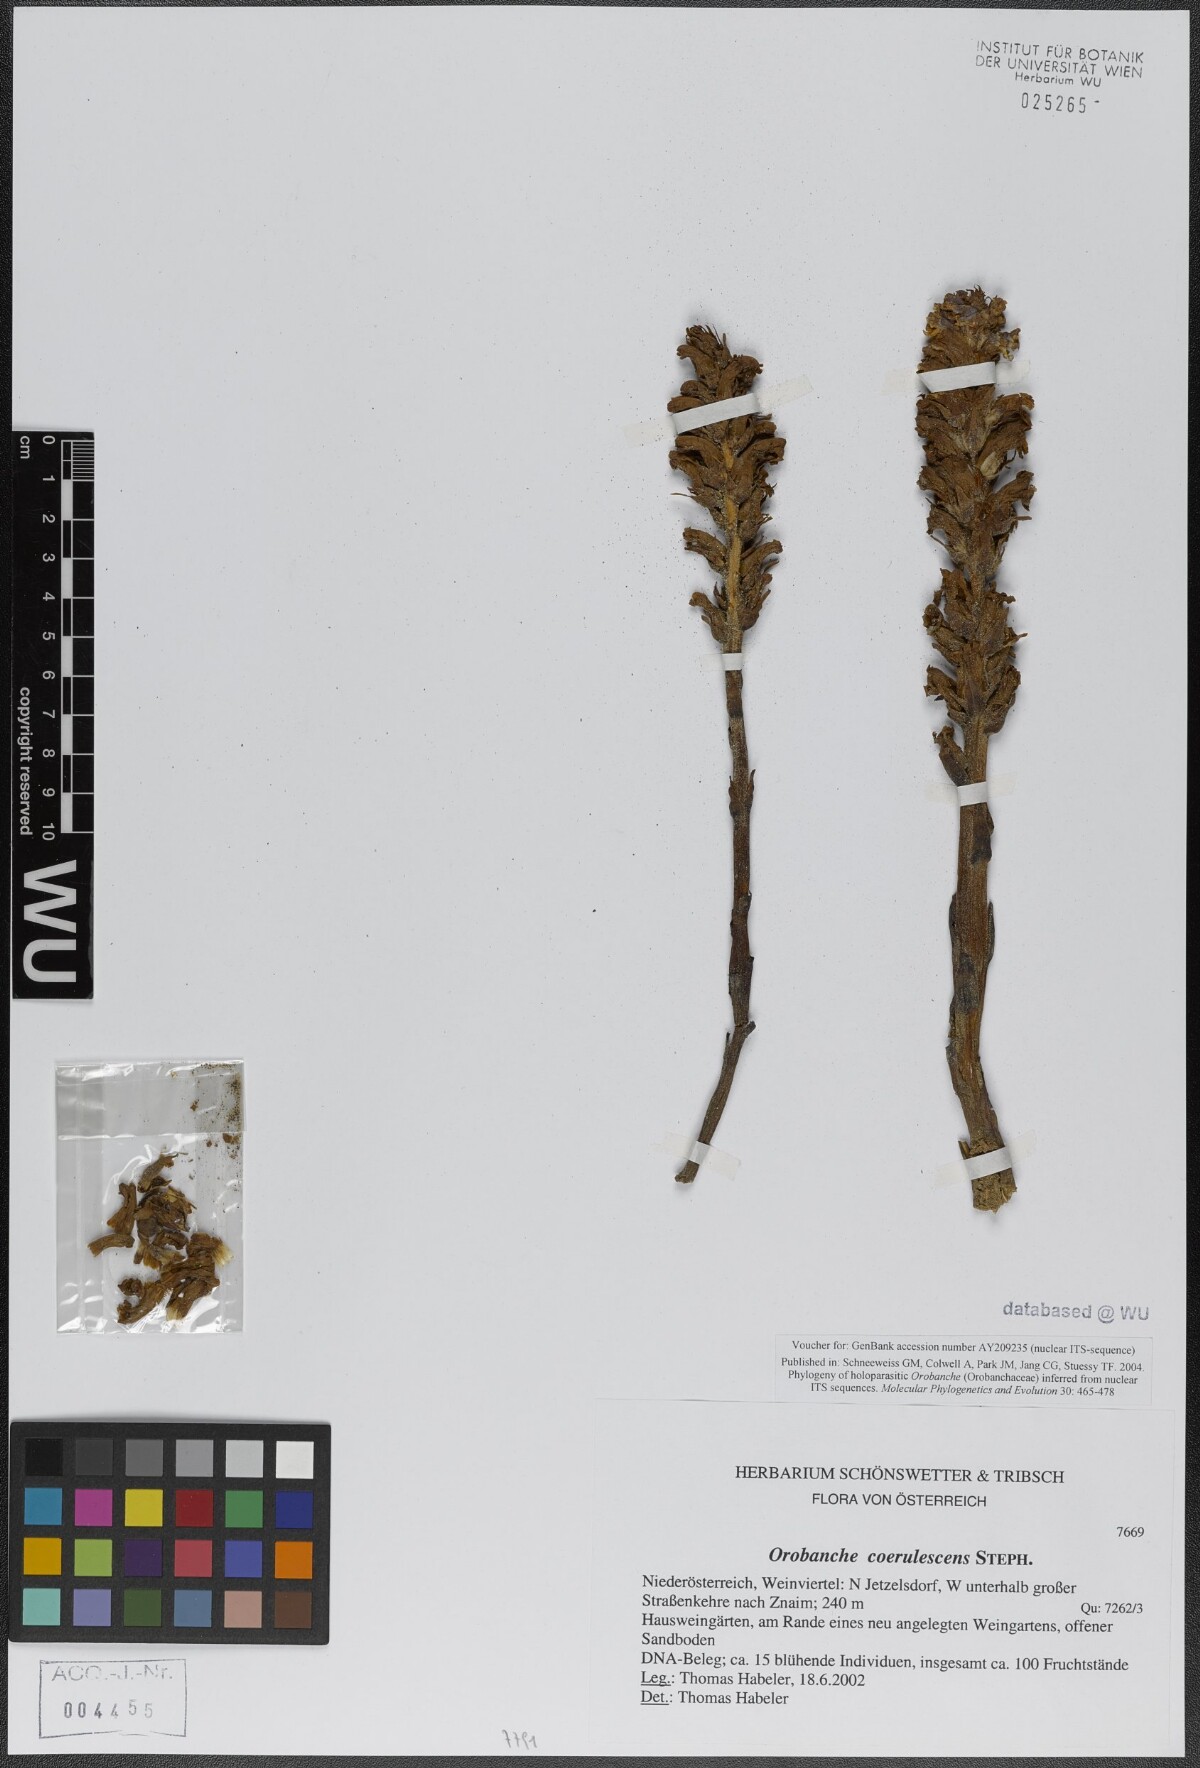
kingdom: Plantae
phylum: Tracheophyta
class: Magnoliopsida
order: Lamiales
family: Orobanchaceae
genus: Orobanche
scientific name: Orobanche coerulescens
